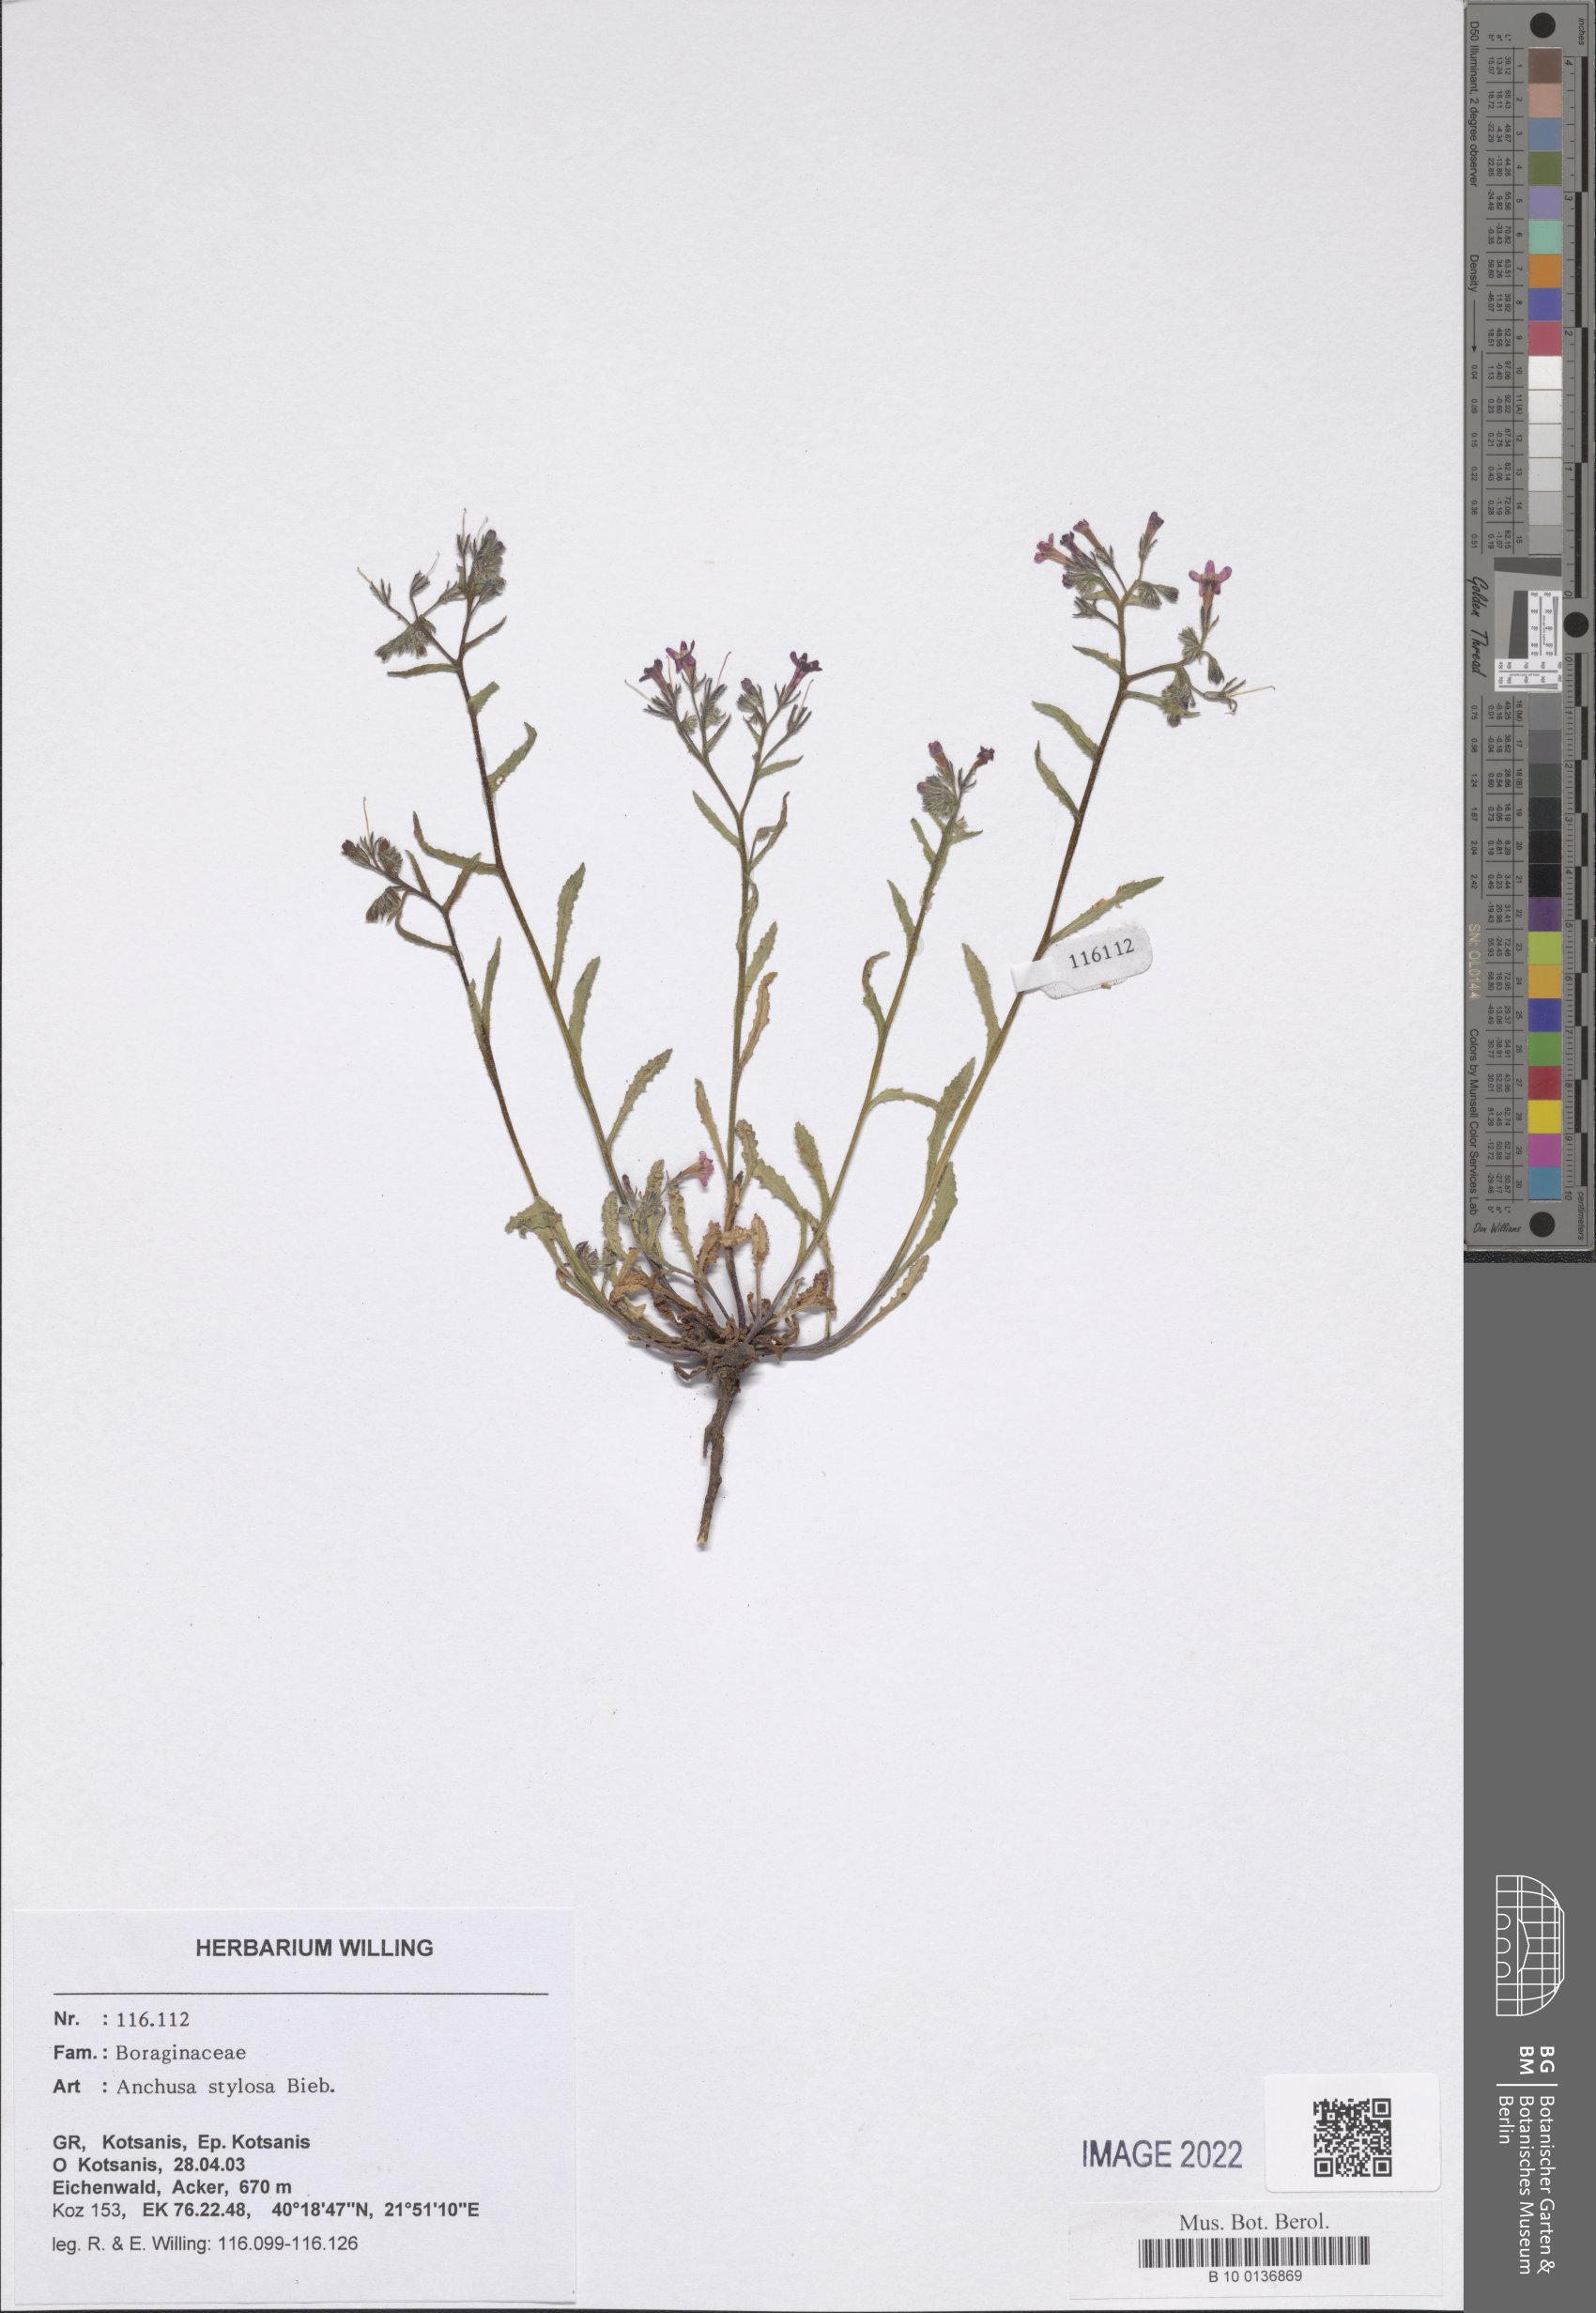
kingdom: Plantae
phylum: Tracheophyta
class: Magnoliopsida
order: Boraginales
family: Boraginaceae
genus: Anchusa
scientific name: Anchusa stylosa
